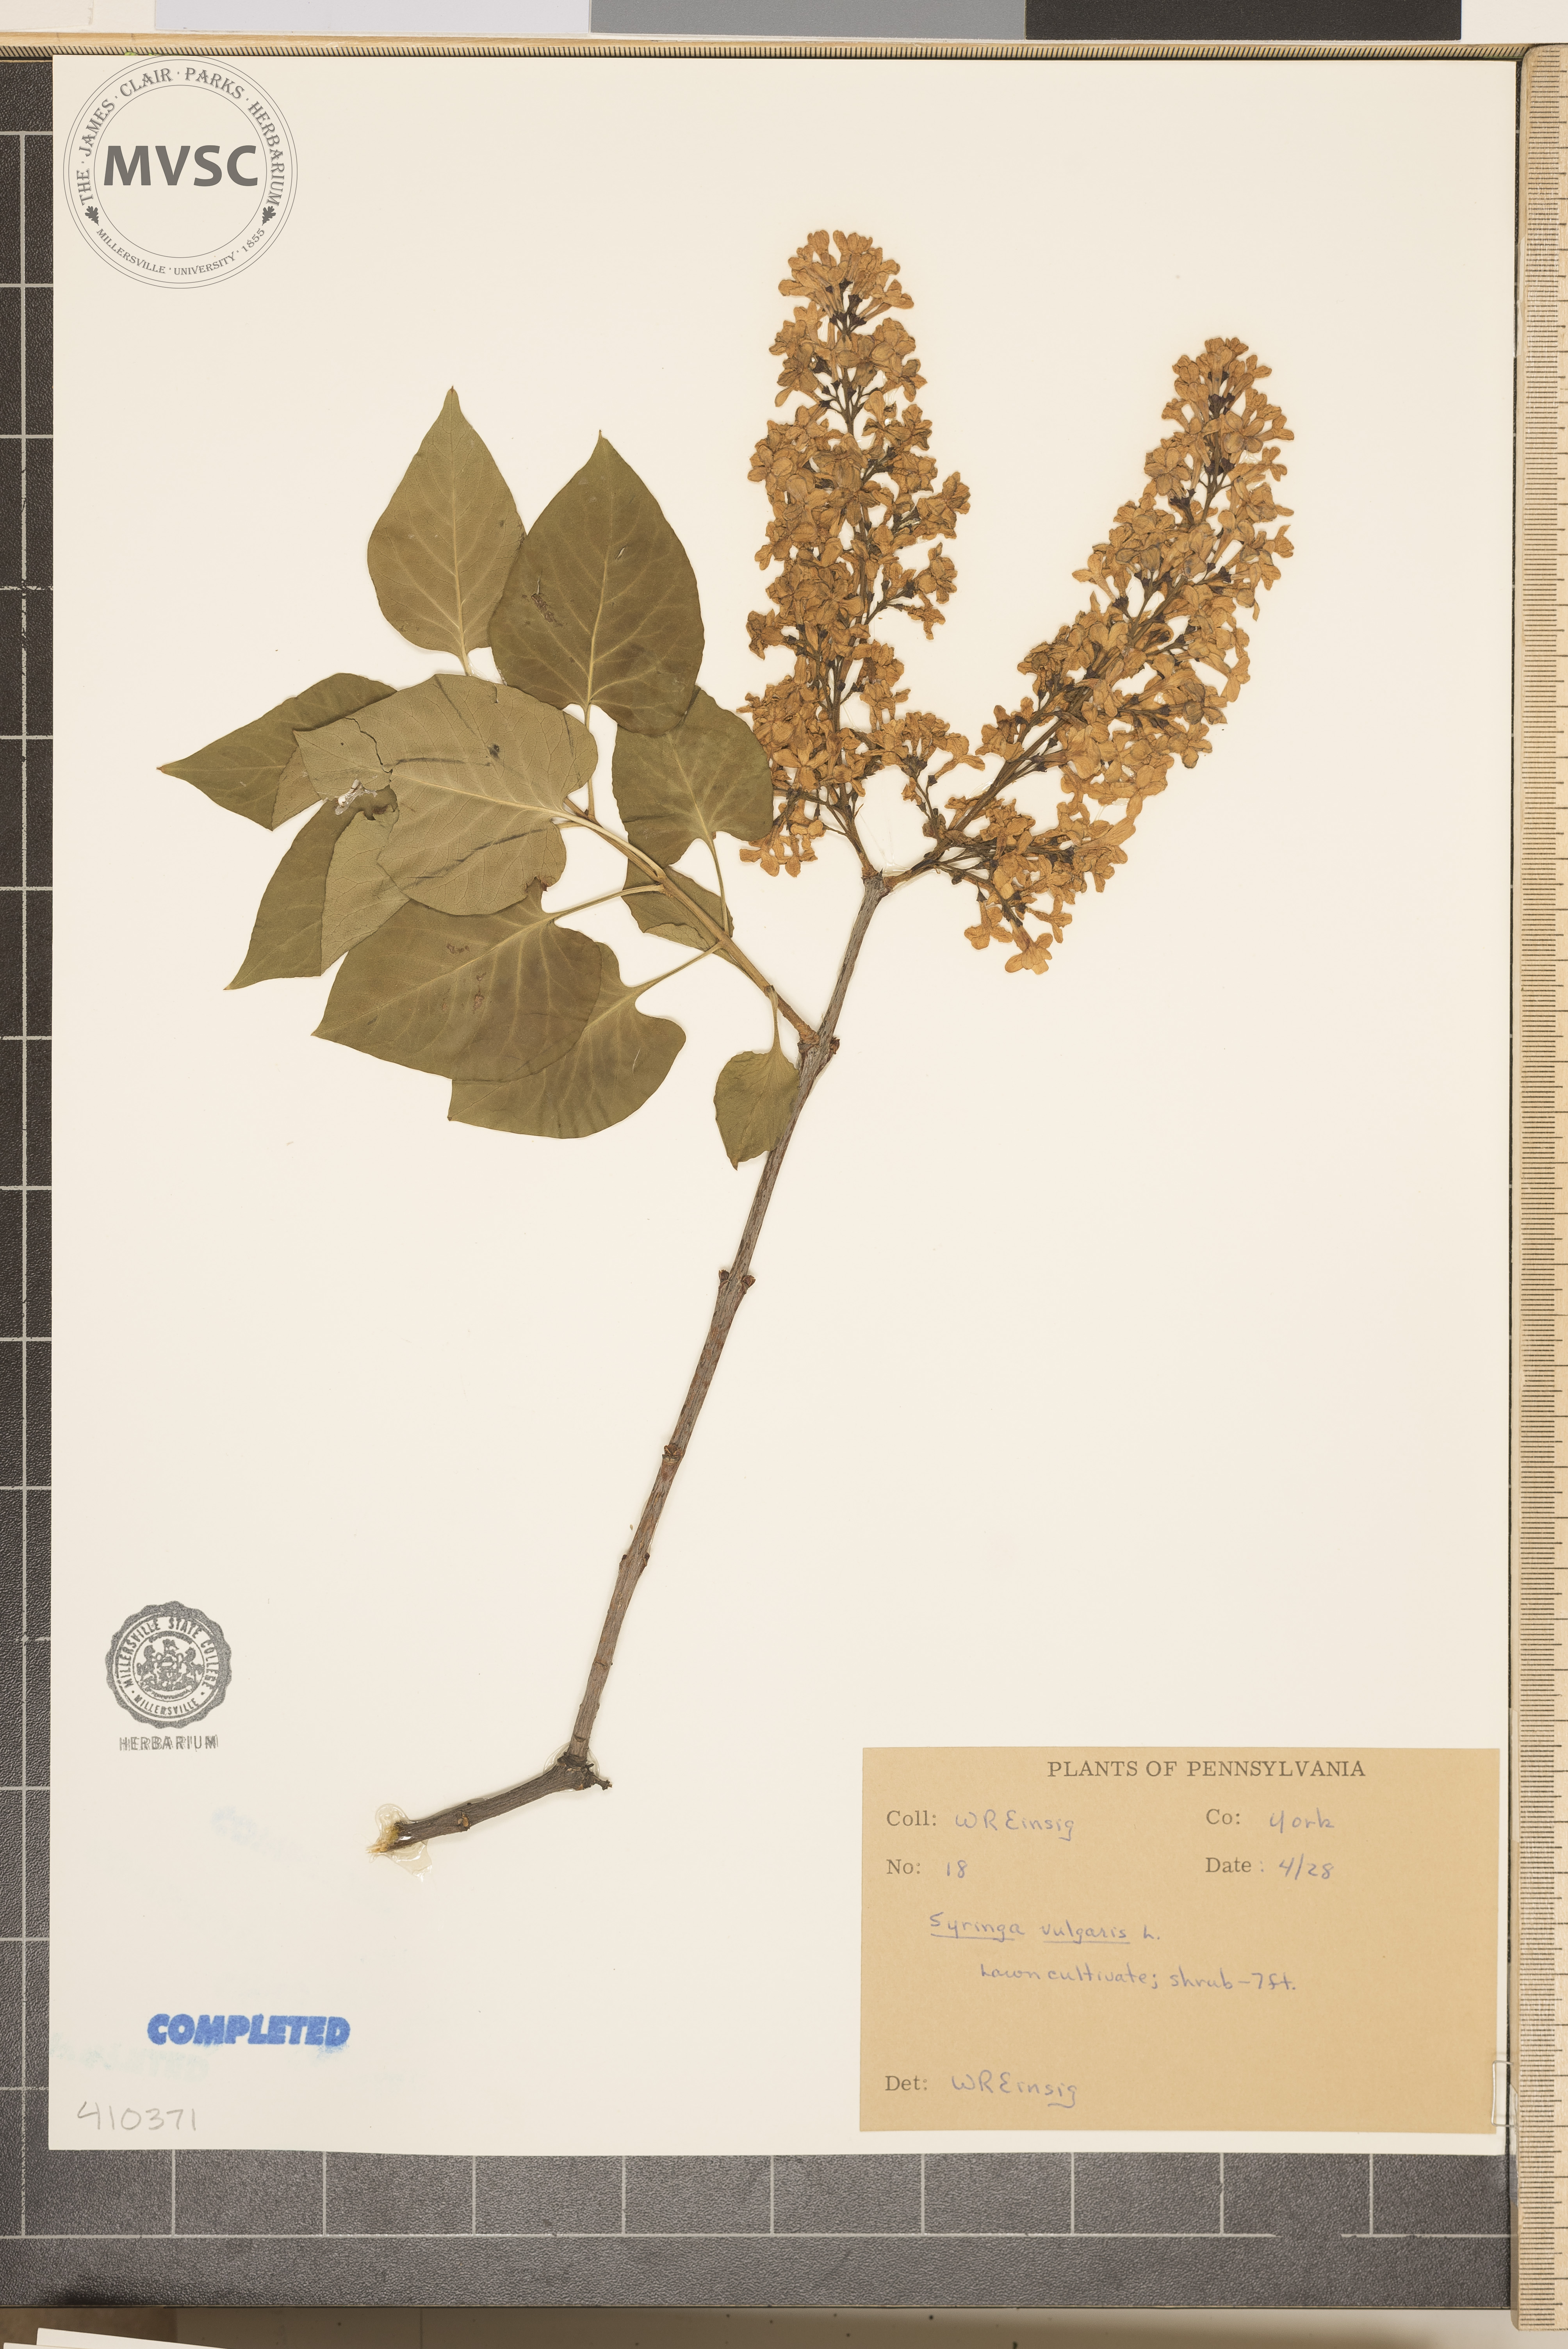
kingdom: Plantae
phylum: Tracheophyta
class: Magnoliopsida
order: Lamiales
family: Oleaceae
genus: Syringa
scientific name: Syringa vulgaris
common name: Common lilac
